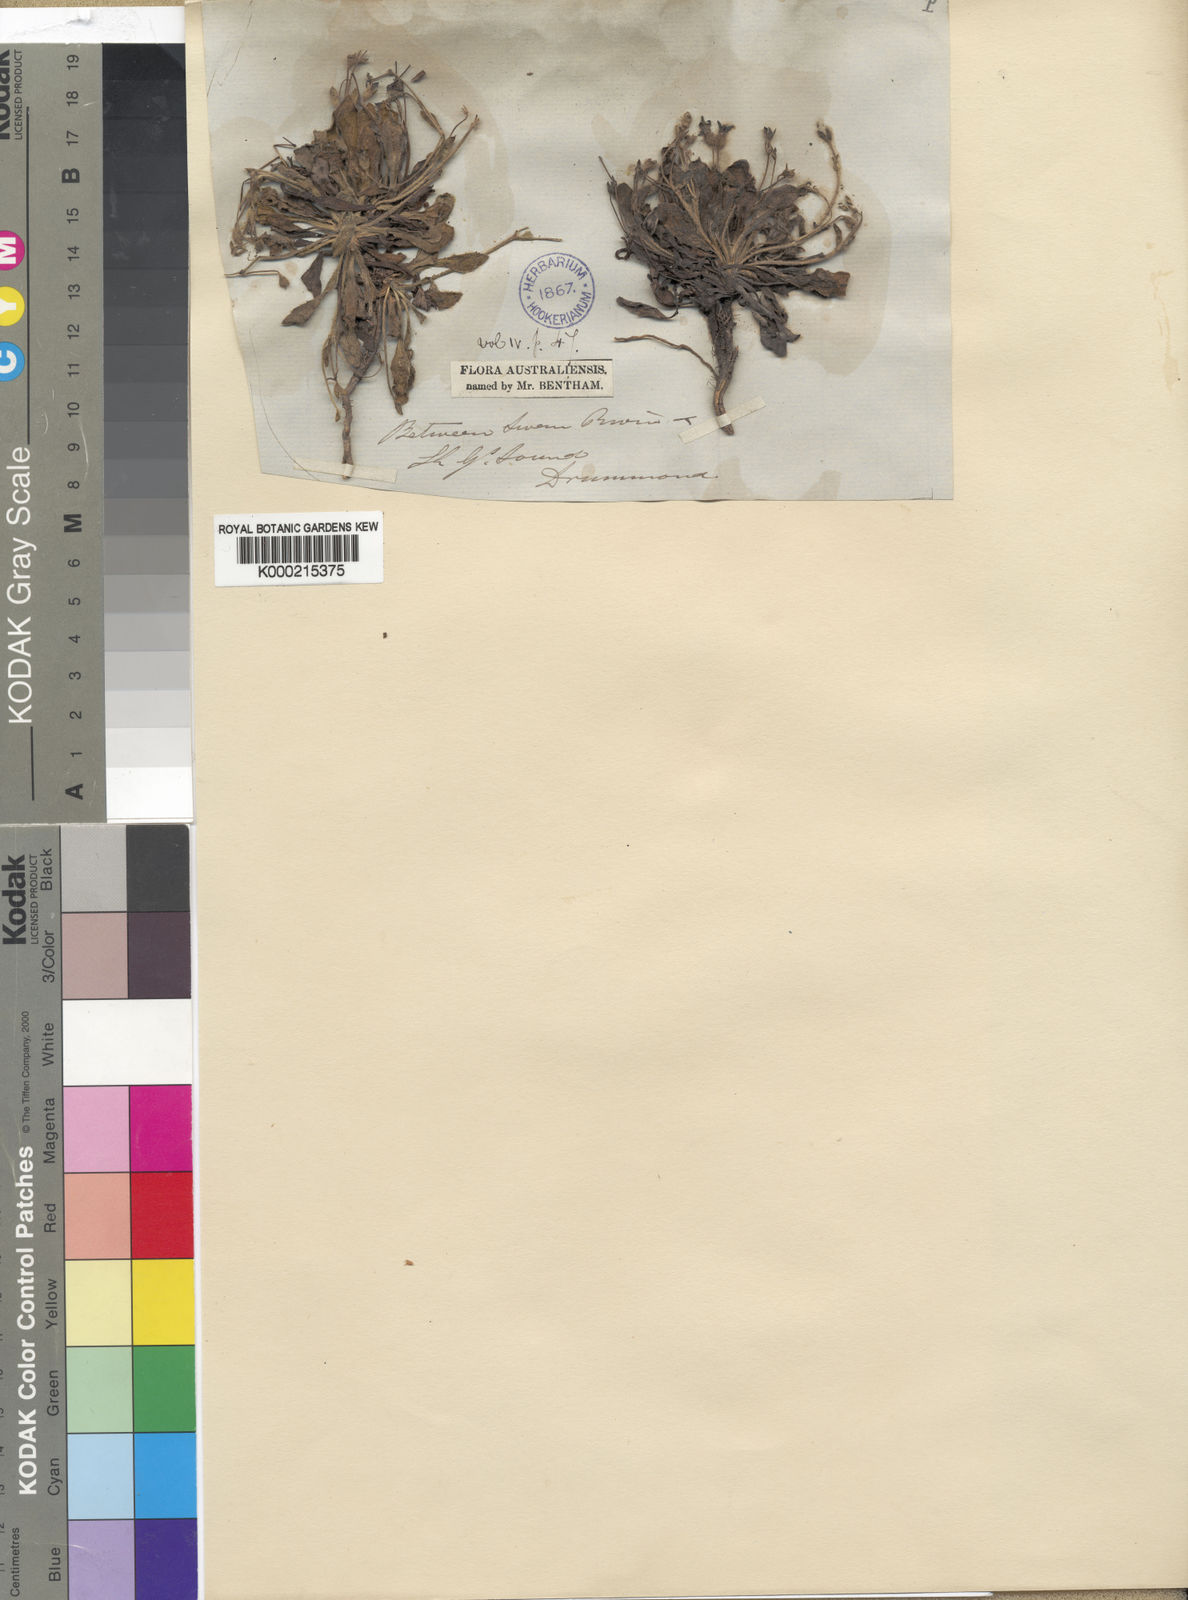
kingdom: Plantae
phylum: Tracheophyta
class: Magnoliopsida
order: Asterales
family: Goodeniaceae
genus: Goodenia
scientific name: Goodenia trinervis
